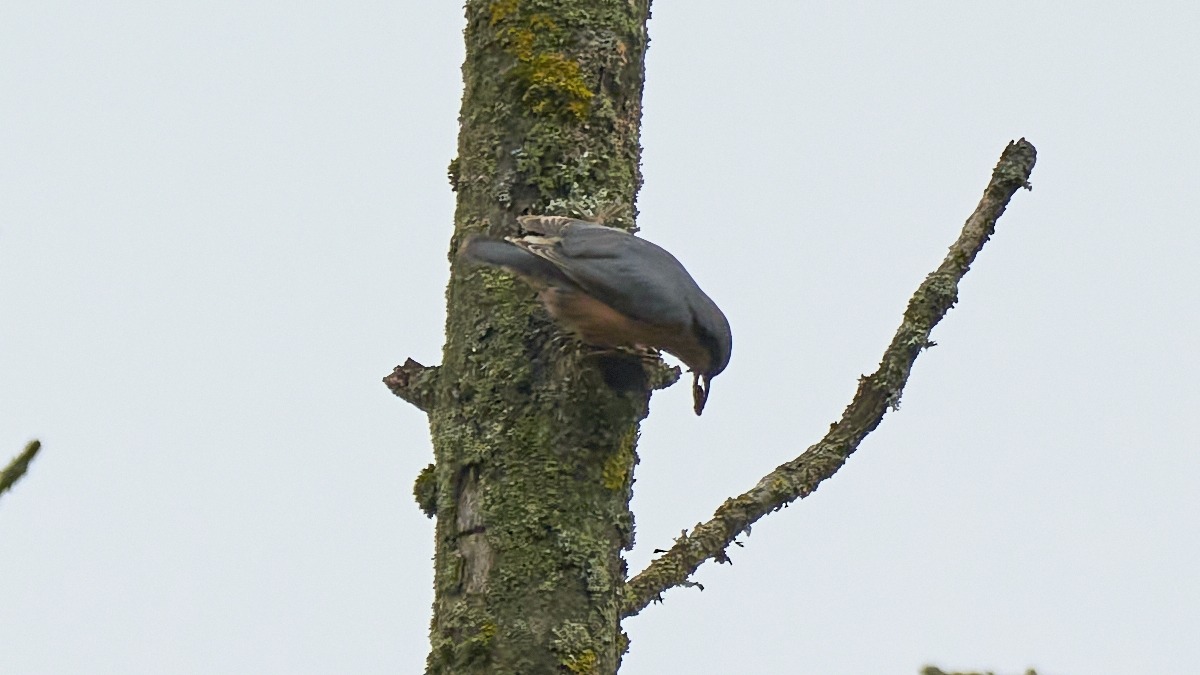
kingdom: Animalia
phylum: Chordata
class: Aves
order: Passeriformes
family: Sittidae
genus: Sitta
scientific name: Sitta europaea
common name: Mørkbuget spætmejse
